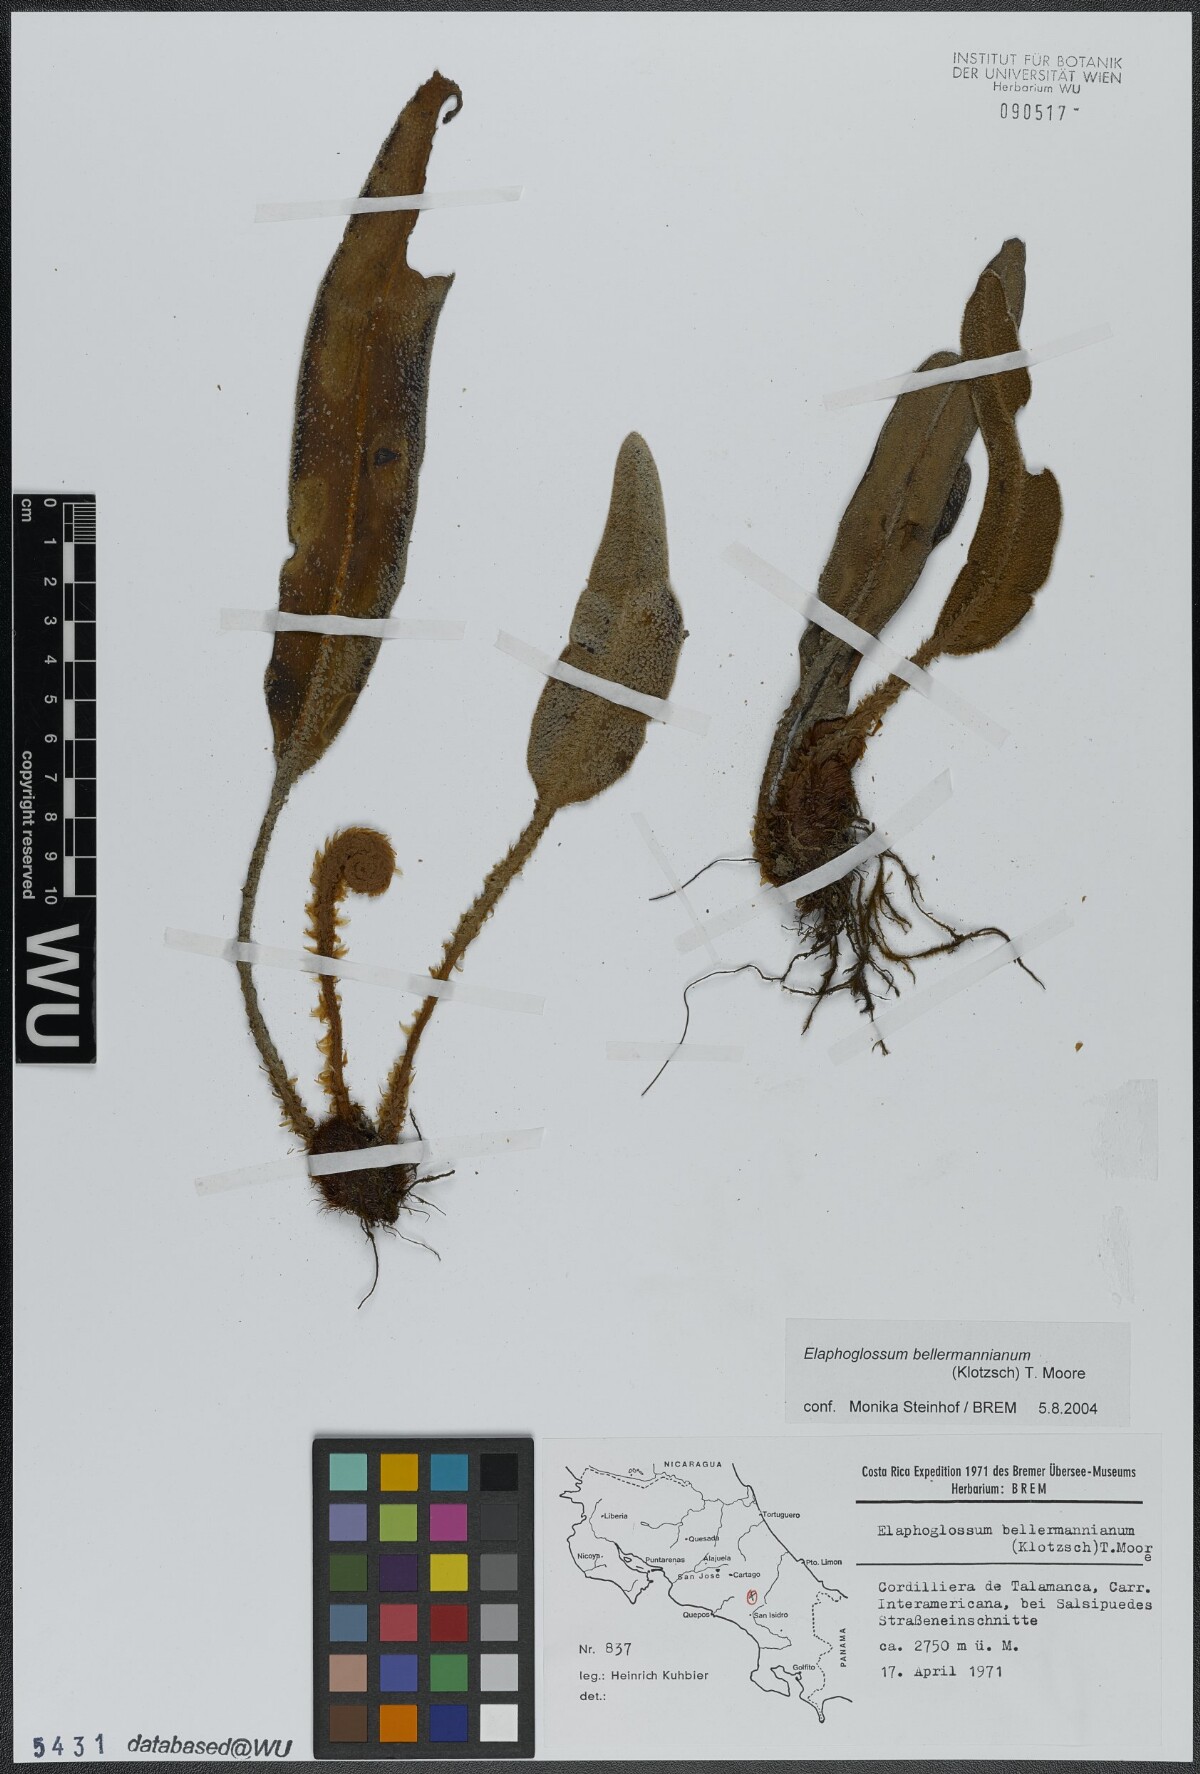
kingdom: Plantae
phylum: Tracheophyta
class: Polypodiopsida
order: Polypodiales
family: Dryopteridaceae
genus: Elaphoglossum
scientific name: Elaphoglossum bellermannianum
